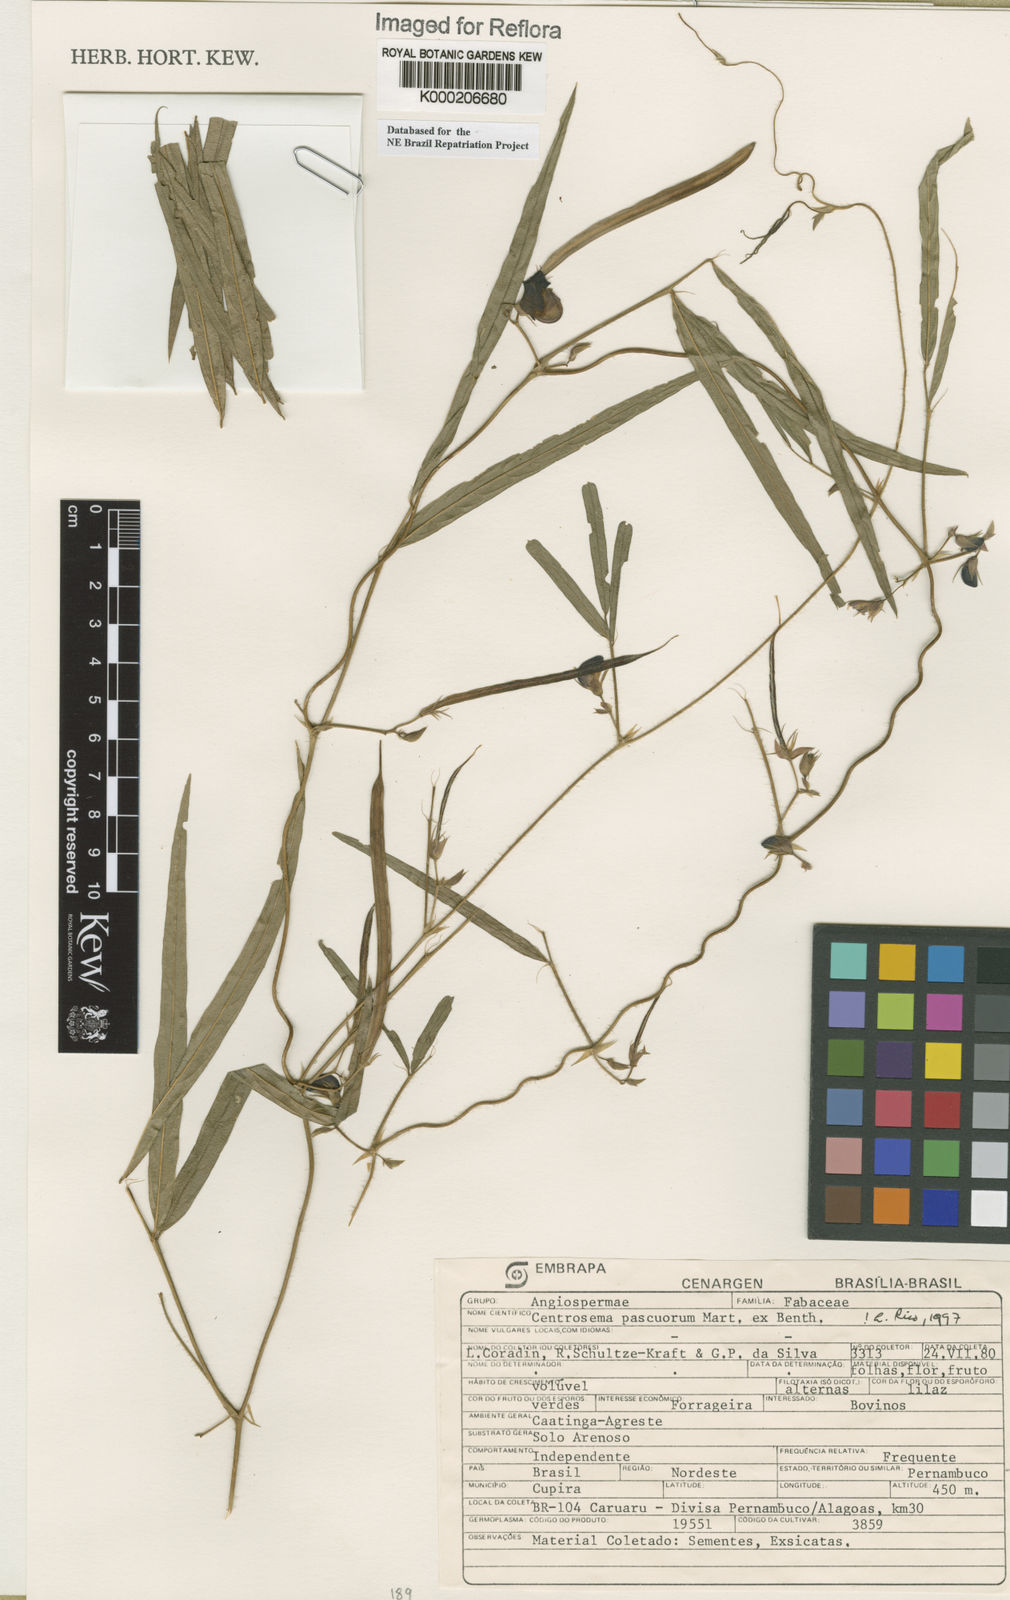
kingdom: Plantae
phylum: Tracheophyta
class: Magnoliopsida
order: Fabales
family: Fabaceae
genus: Centrosema
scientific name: Centrosema pascuorum
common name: Centurion
